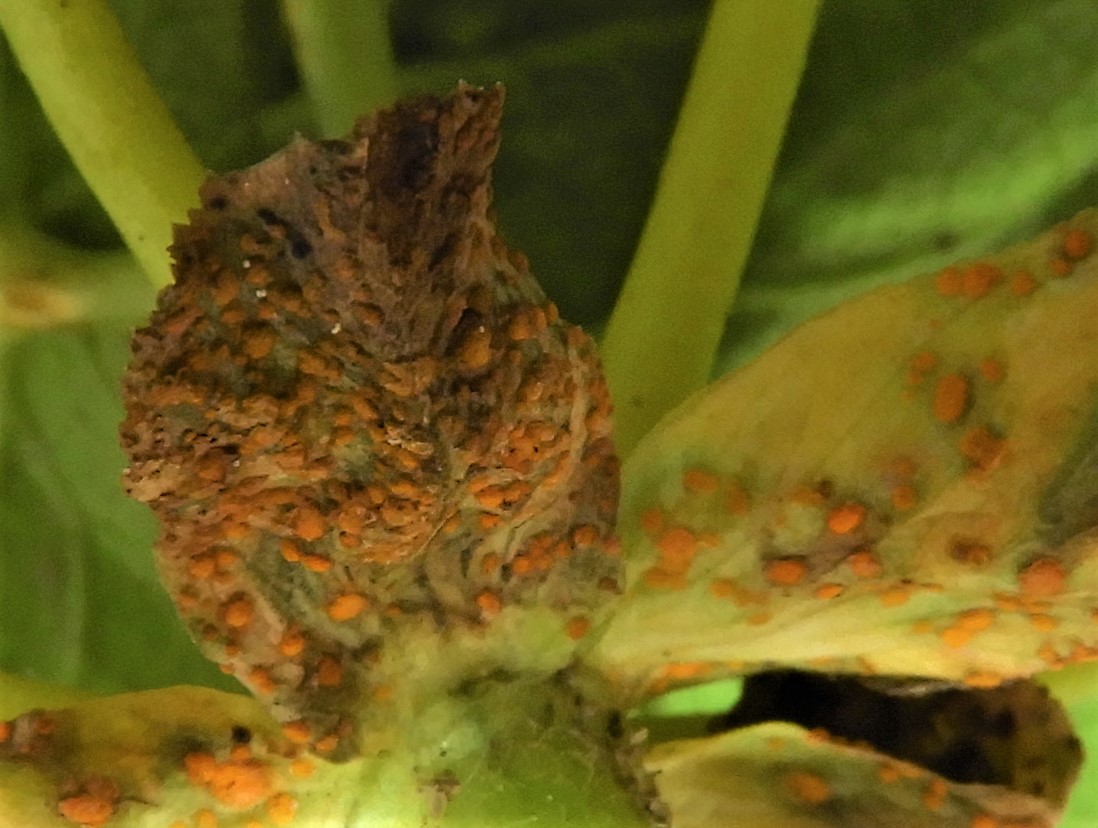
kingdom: Fungi
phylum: Basidiomycota
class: Pucciniomycetes
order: Pucciniales
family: Melampsoraceae
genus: Melampsora
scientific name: Melampsora euphorbiae
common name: vortemælk-skorperust
